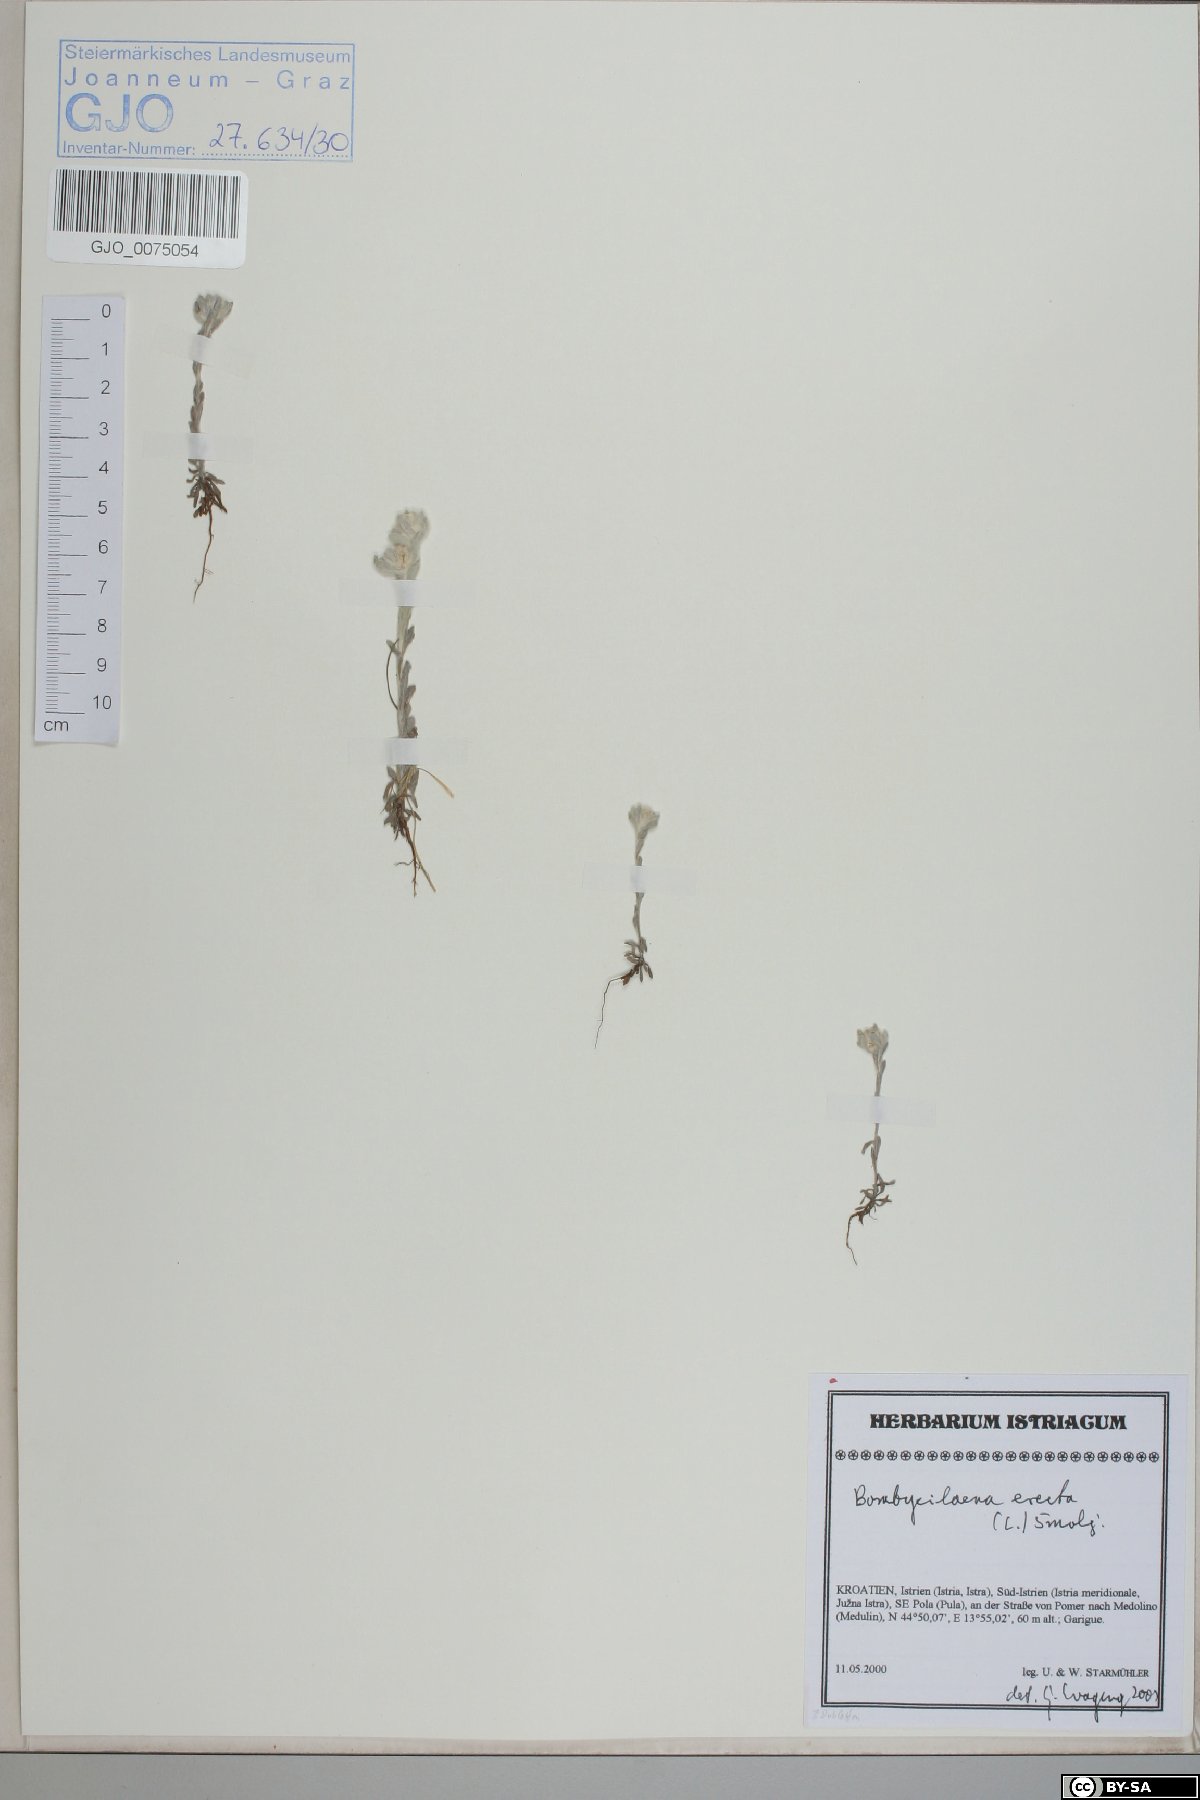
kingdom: Plantae
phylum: Tracheophyta
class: Magnoliopsida
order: Asterales
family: Asteraceae
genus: Bombycilaena
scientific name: Bombycilaena erecta
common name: Micropus
